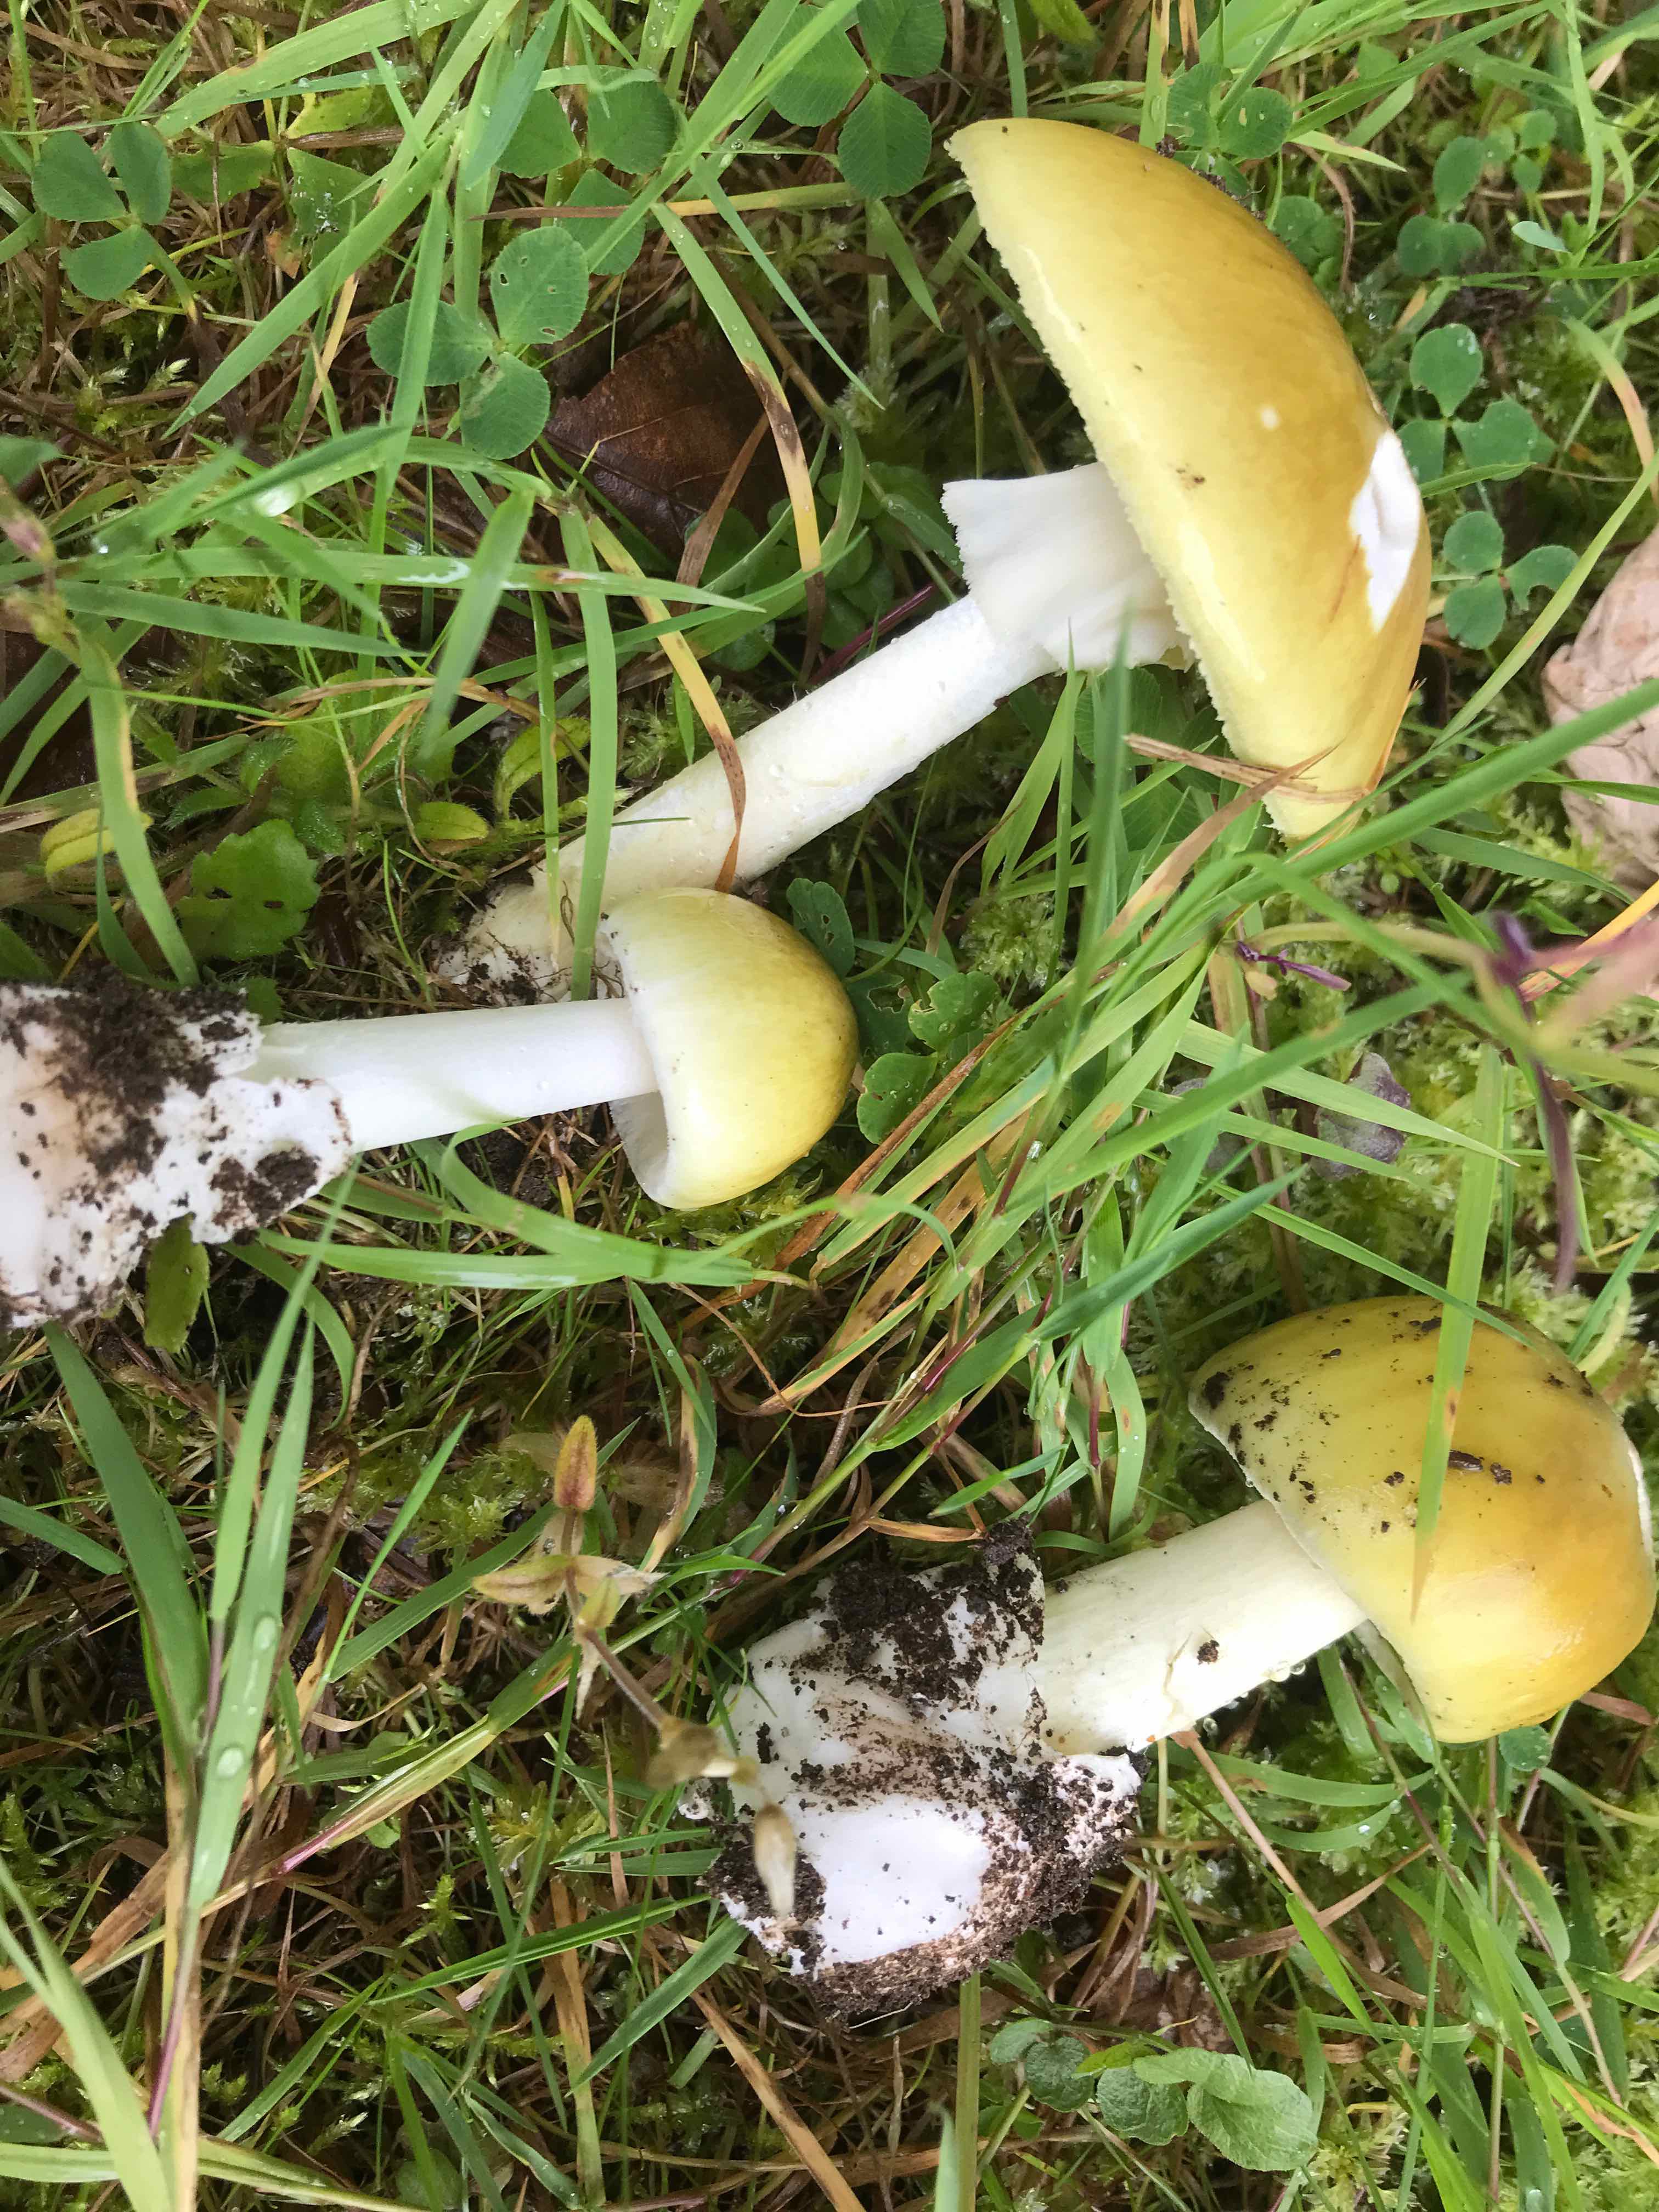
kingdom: Fungi
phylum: Basidiomycota
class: Agaricomycetes
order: Agaricales
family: Amanitaceae
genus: Amanita
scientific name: Amanita phalloides
